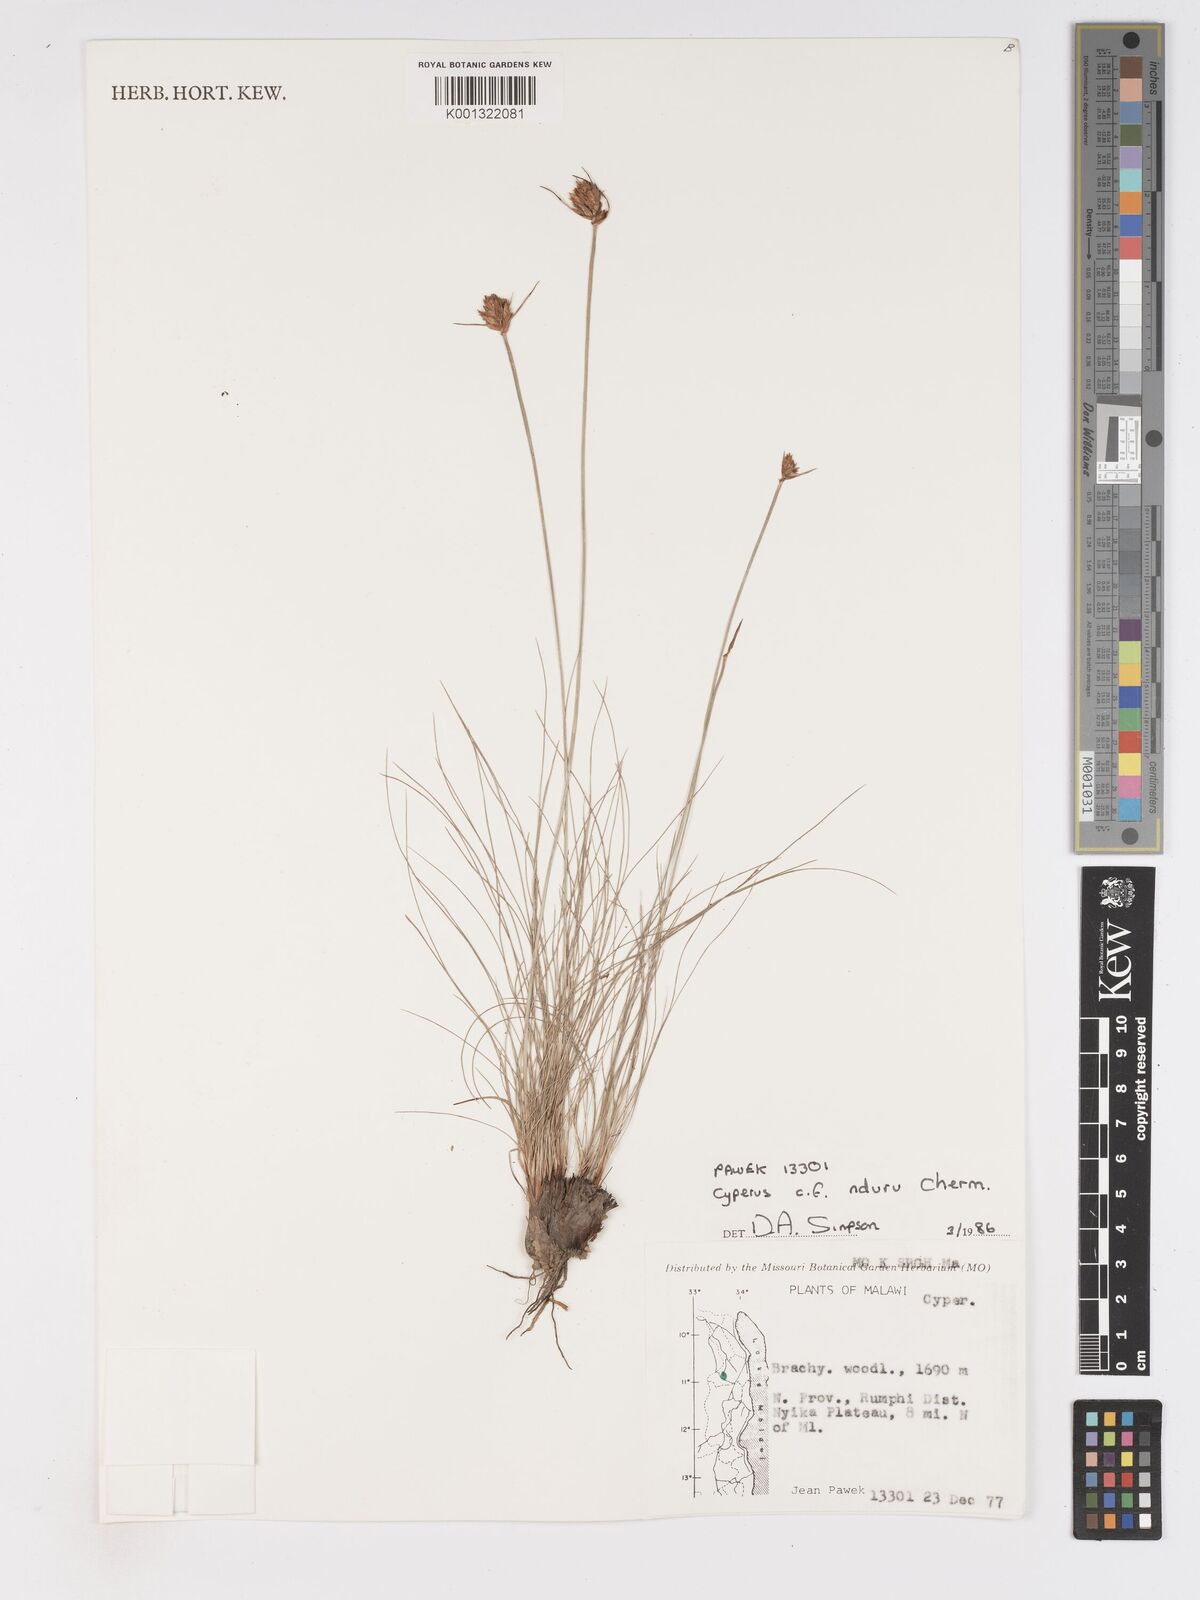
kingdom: Plantae
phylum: Tracheophyta
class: Liliopsida
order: Poales
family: Cyperaceae
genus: Cyperus
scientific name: Cyperus nduru
